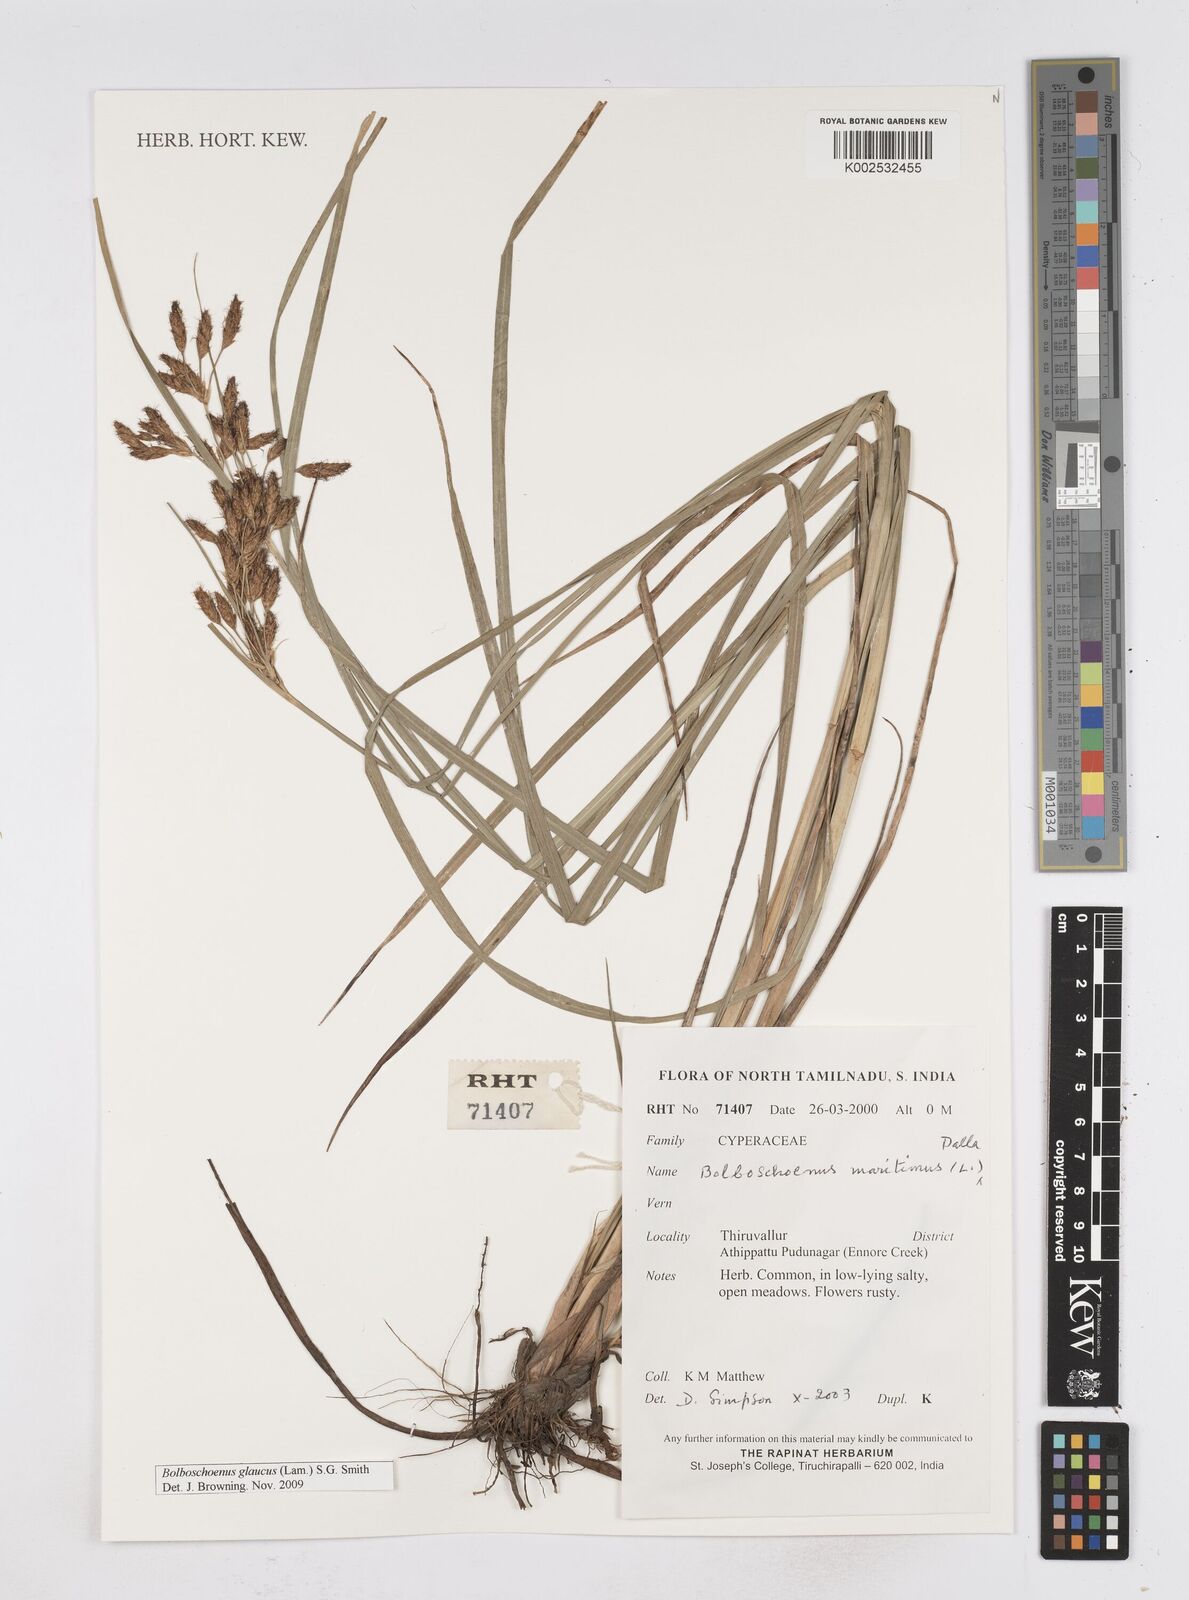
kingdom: Plantae
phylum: Tracheophyta
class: Liliopsida
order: Poales
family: Cyperaceae
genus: Bolboschoenus
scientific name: Bolboschoenus maritimus
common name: Sea club-rush
